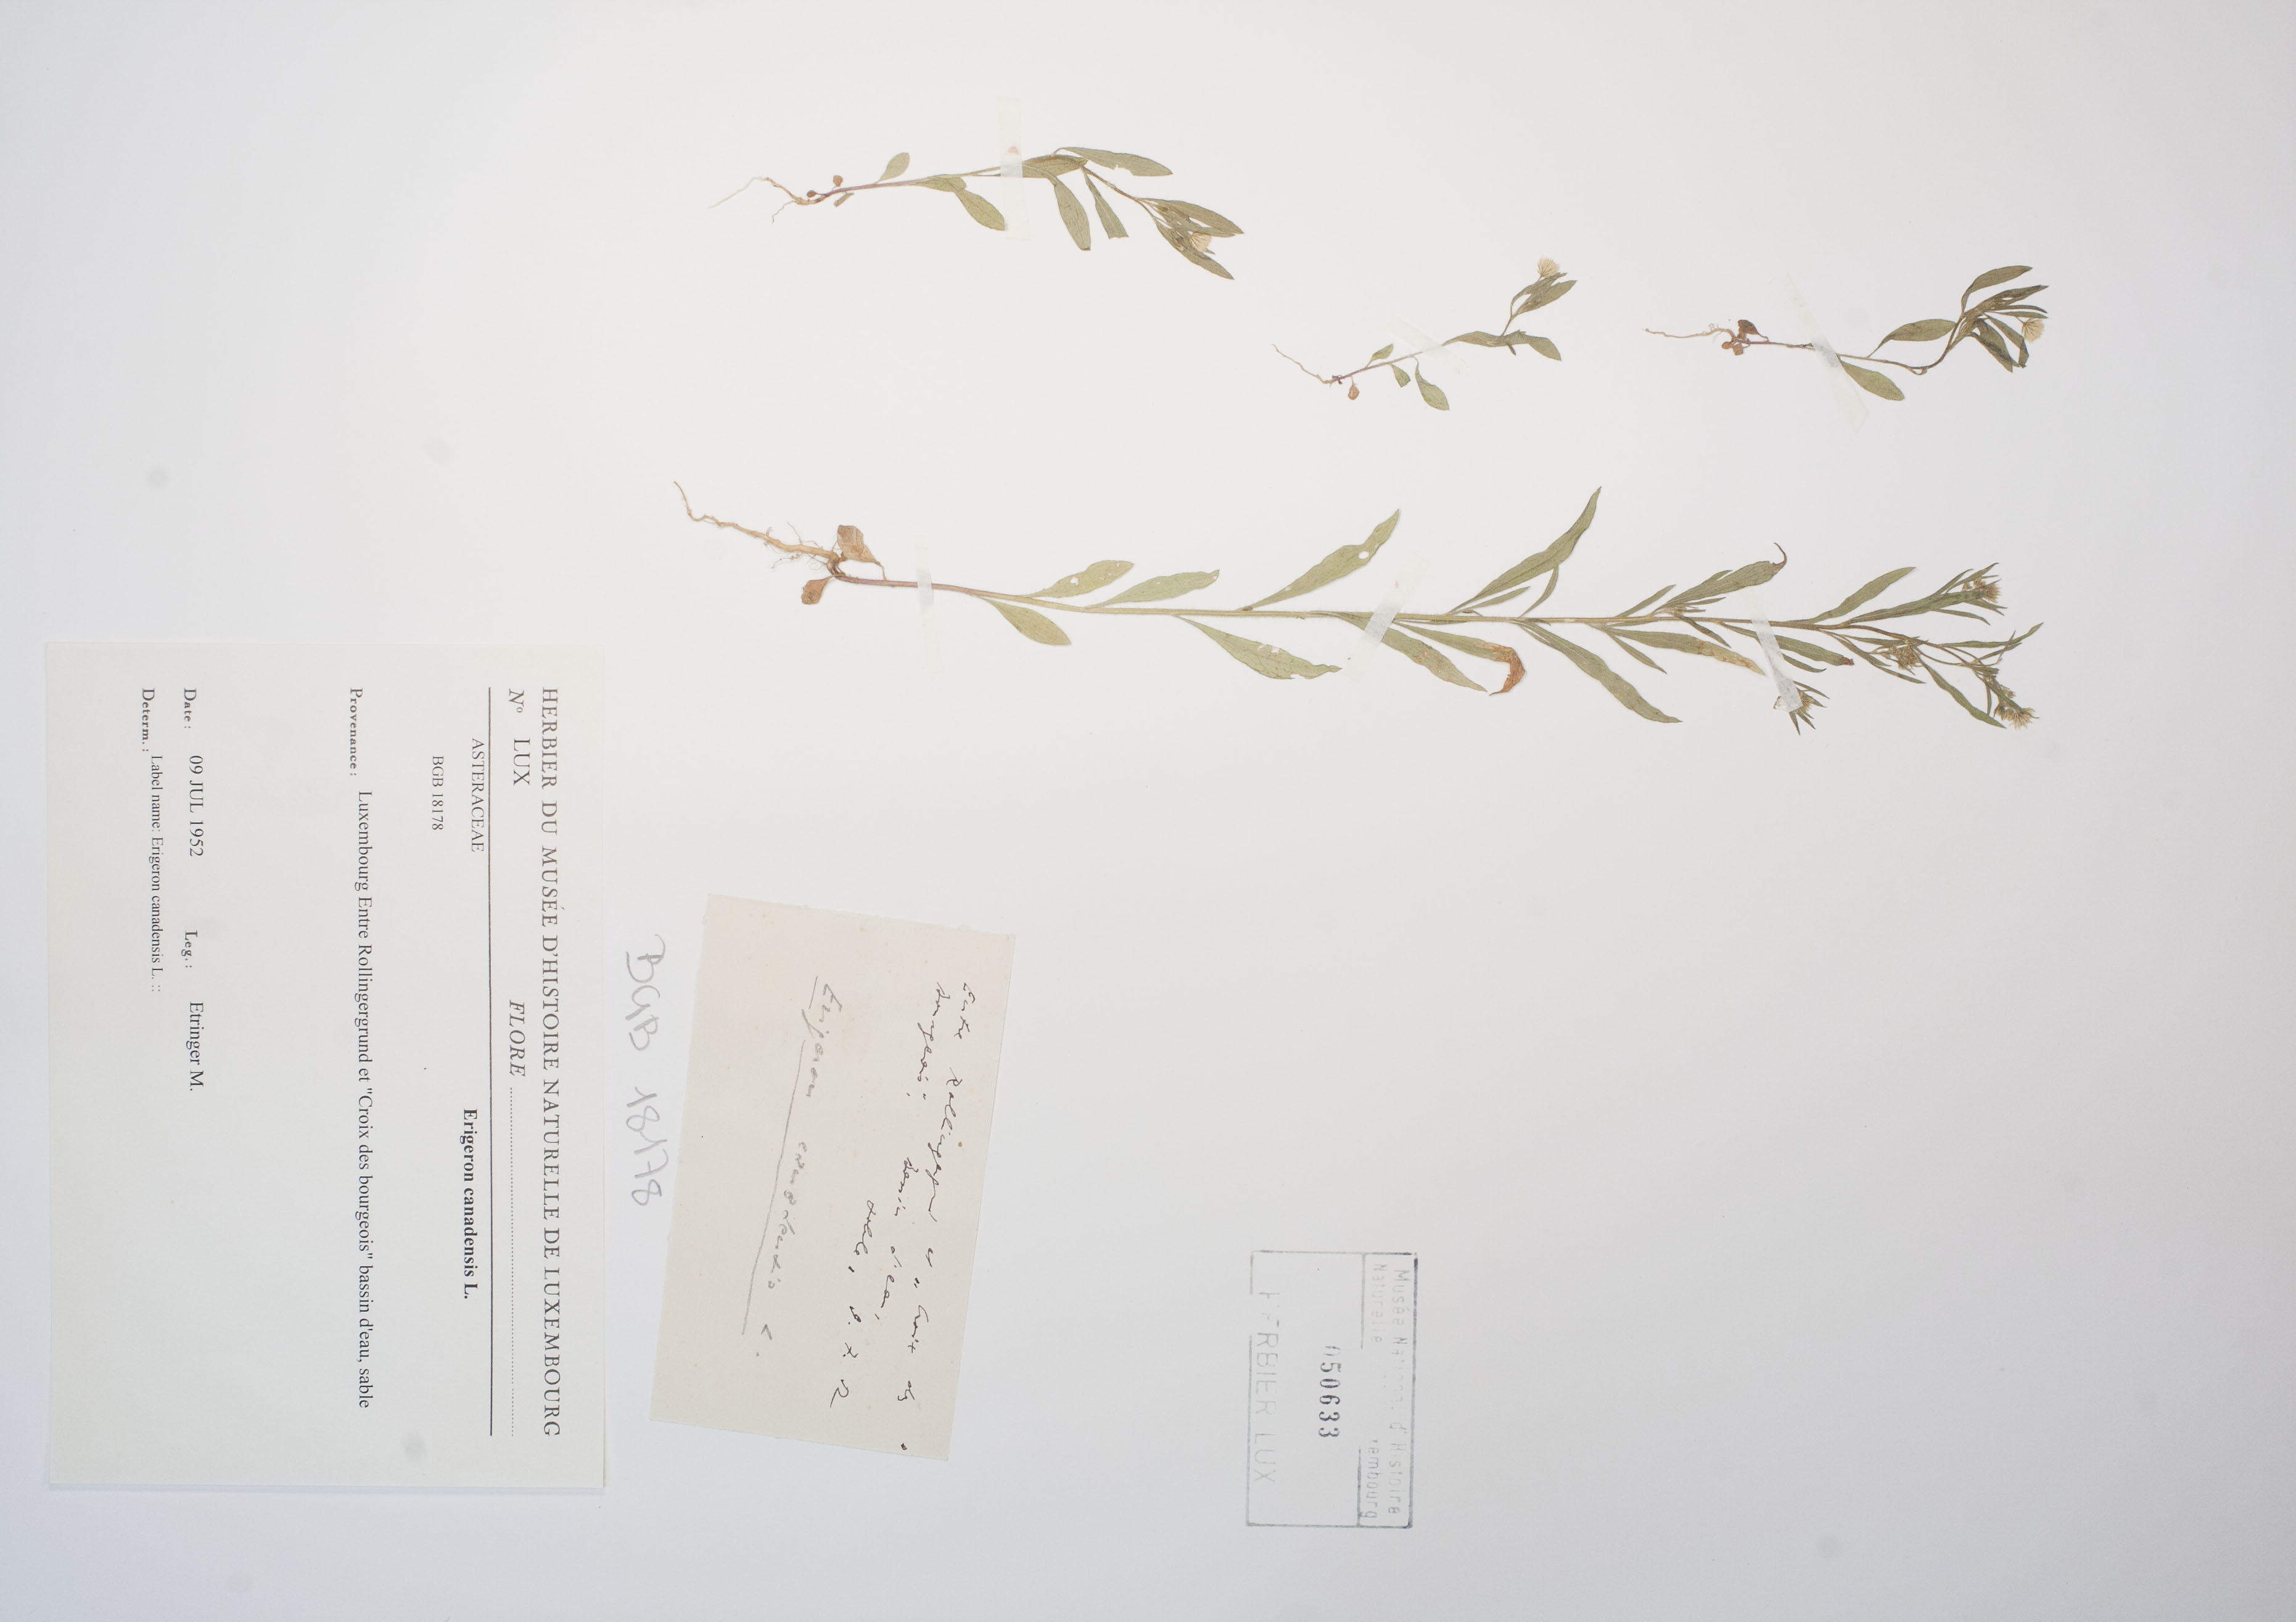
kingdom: Plantae
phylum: Tracheophyta
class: Magnoliopsida
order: Asterales
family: Asteraceae
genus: Erigeron
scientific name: Erigeron canadensis
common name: Canadian fleabane
